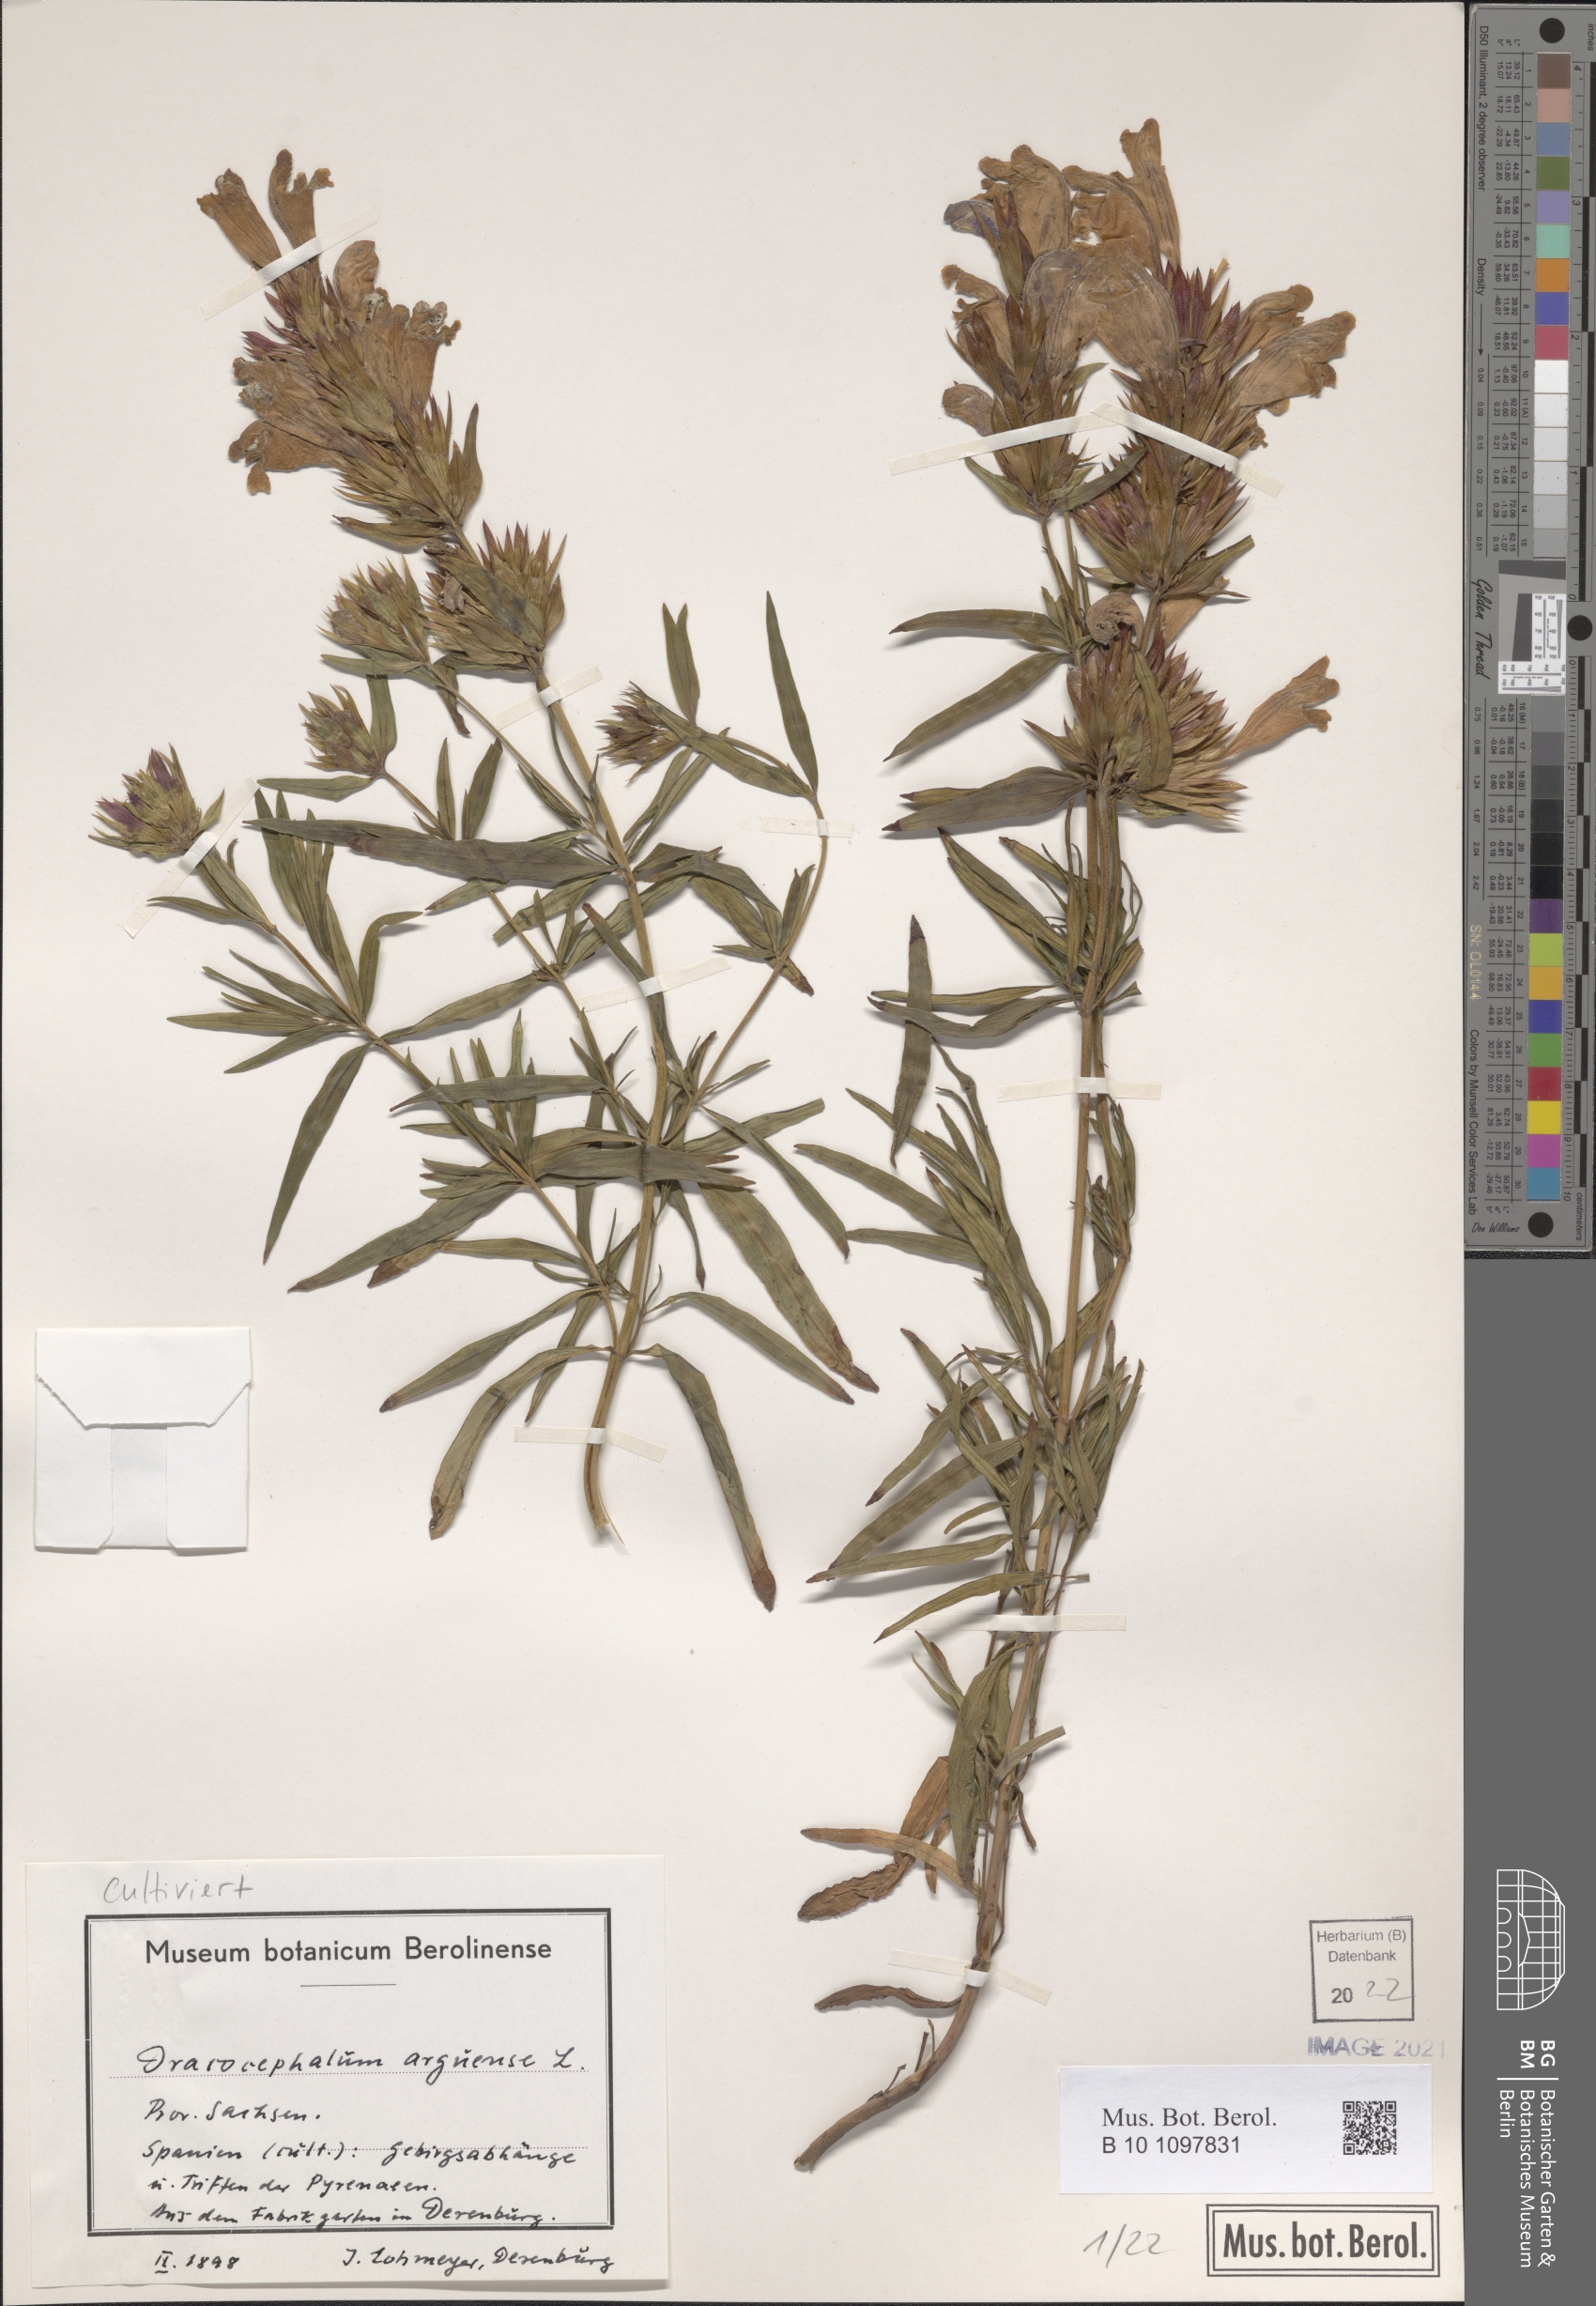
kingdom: Plantae
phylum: Tracheophyta
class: Magnoliopsida
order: Lamiales
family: Lamiaceae
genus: Dracocephalum
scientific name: Dracocephalum argunense
